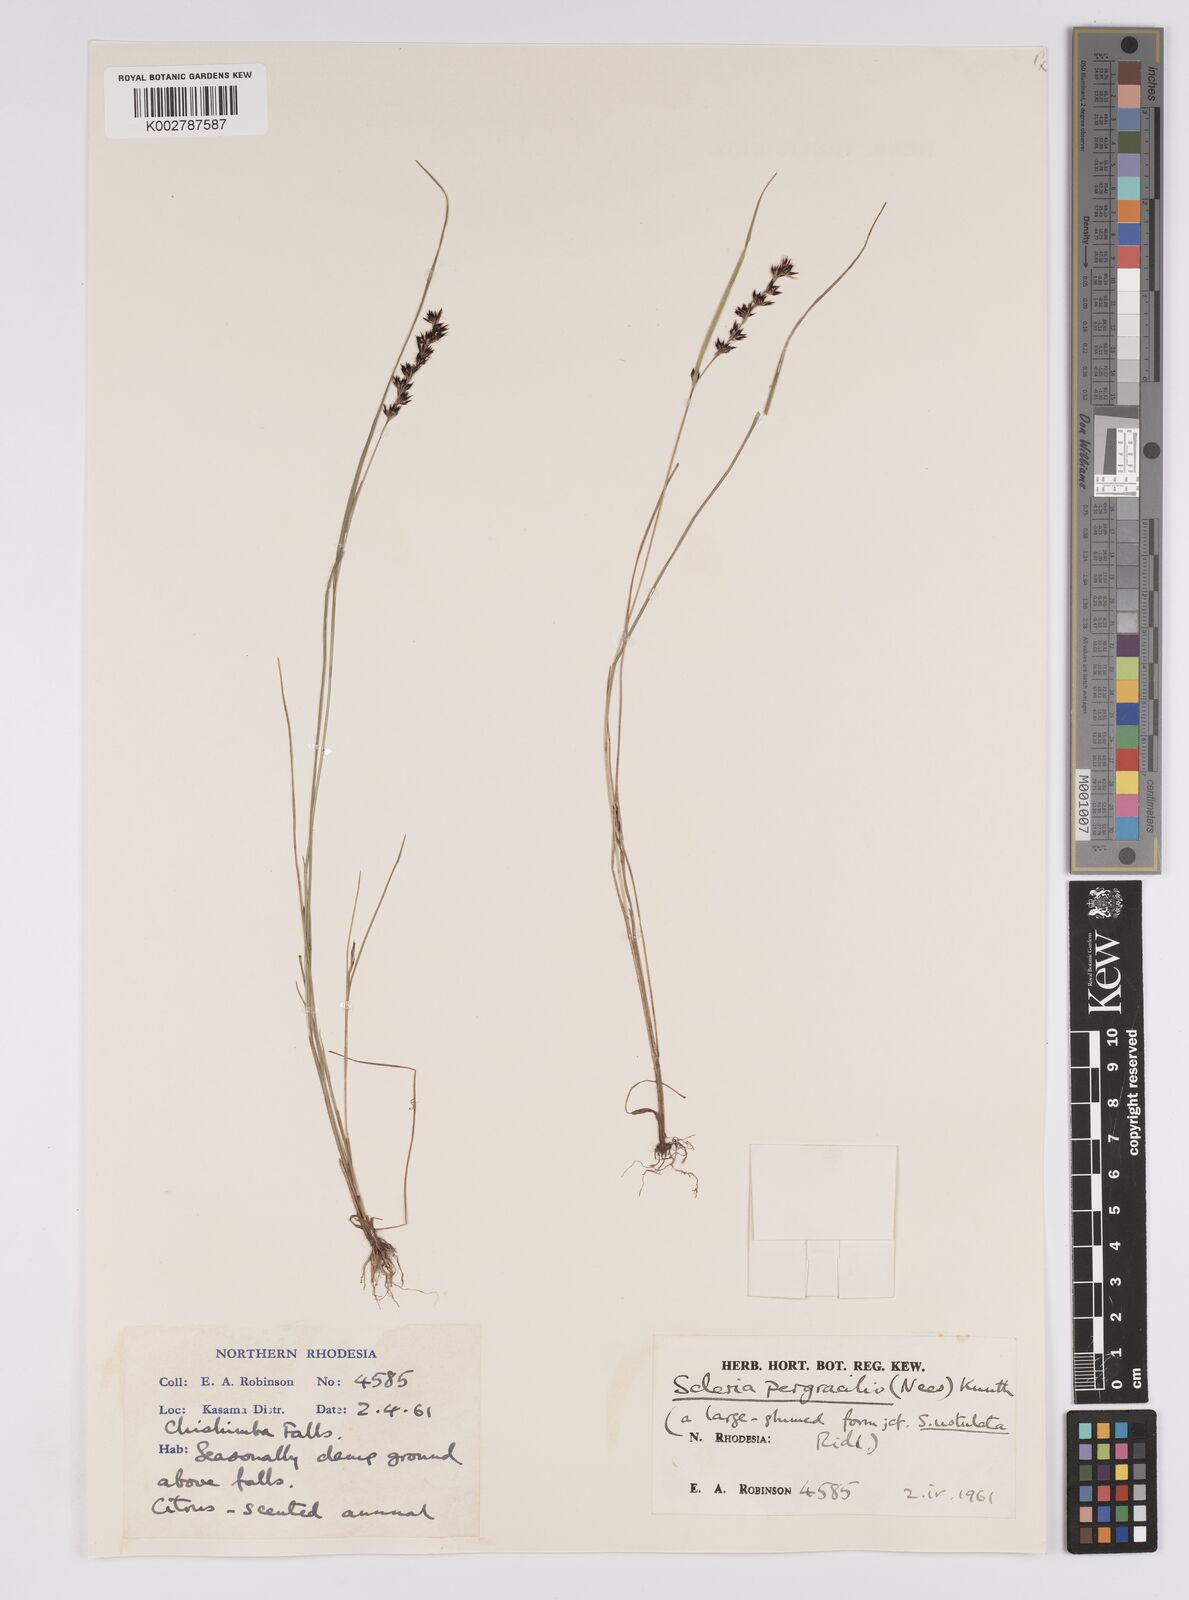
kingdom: Plantae
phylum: Tracheophyta
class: Liliopsida
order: Poales
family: Cyperaceae
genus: Scleria
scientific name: Scleria pergracilis
